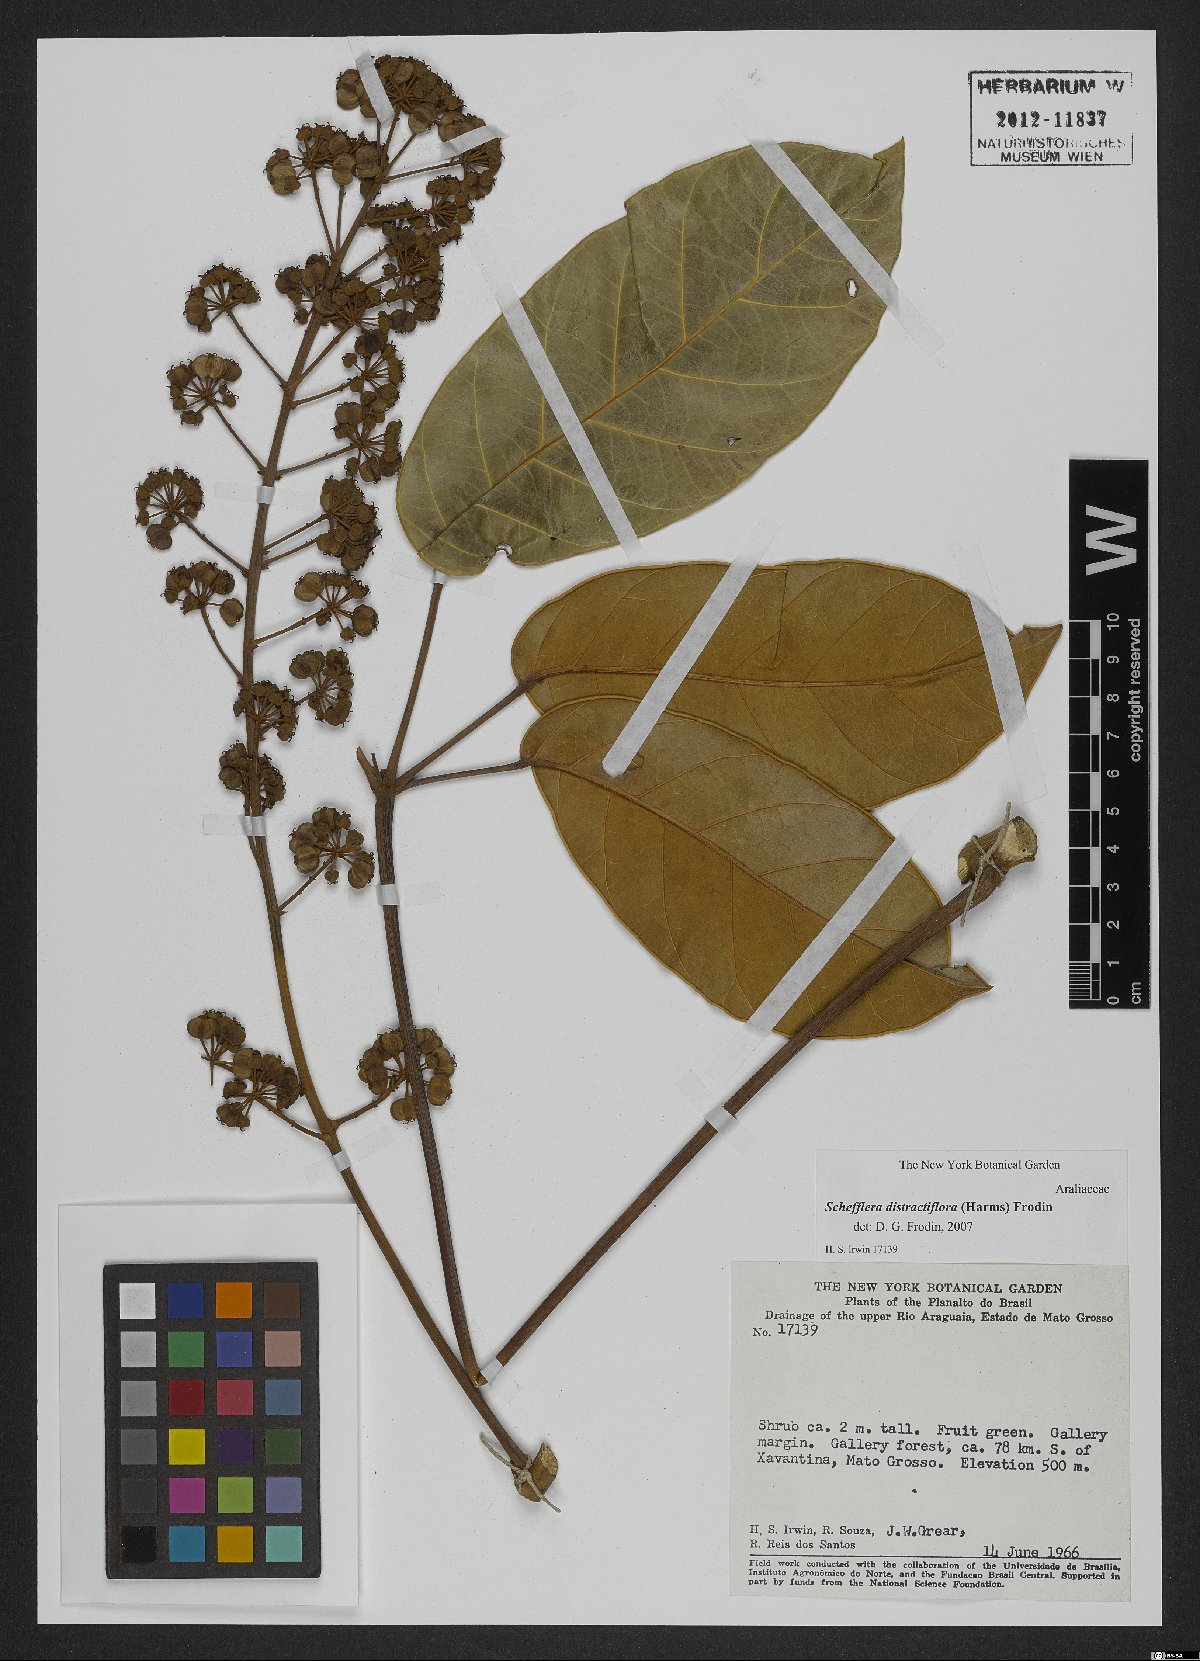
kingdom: Plantae
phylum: Tracheophyta
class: Magnoliopsida
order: Apiales
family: Araliaceae
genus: Didymopanax
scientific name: Didymopanax distractiflorus
